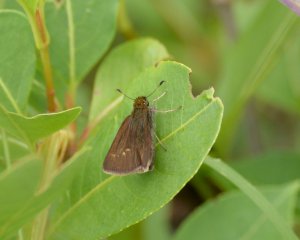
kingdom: Animalia
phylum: Arthropoda
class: Insecta
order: Lepidoptera
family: Hesperiidae
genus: Euphyes
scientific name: Euphyes vestris
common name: Dun Skipper
